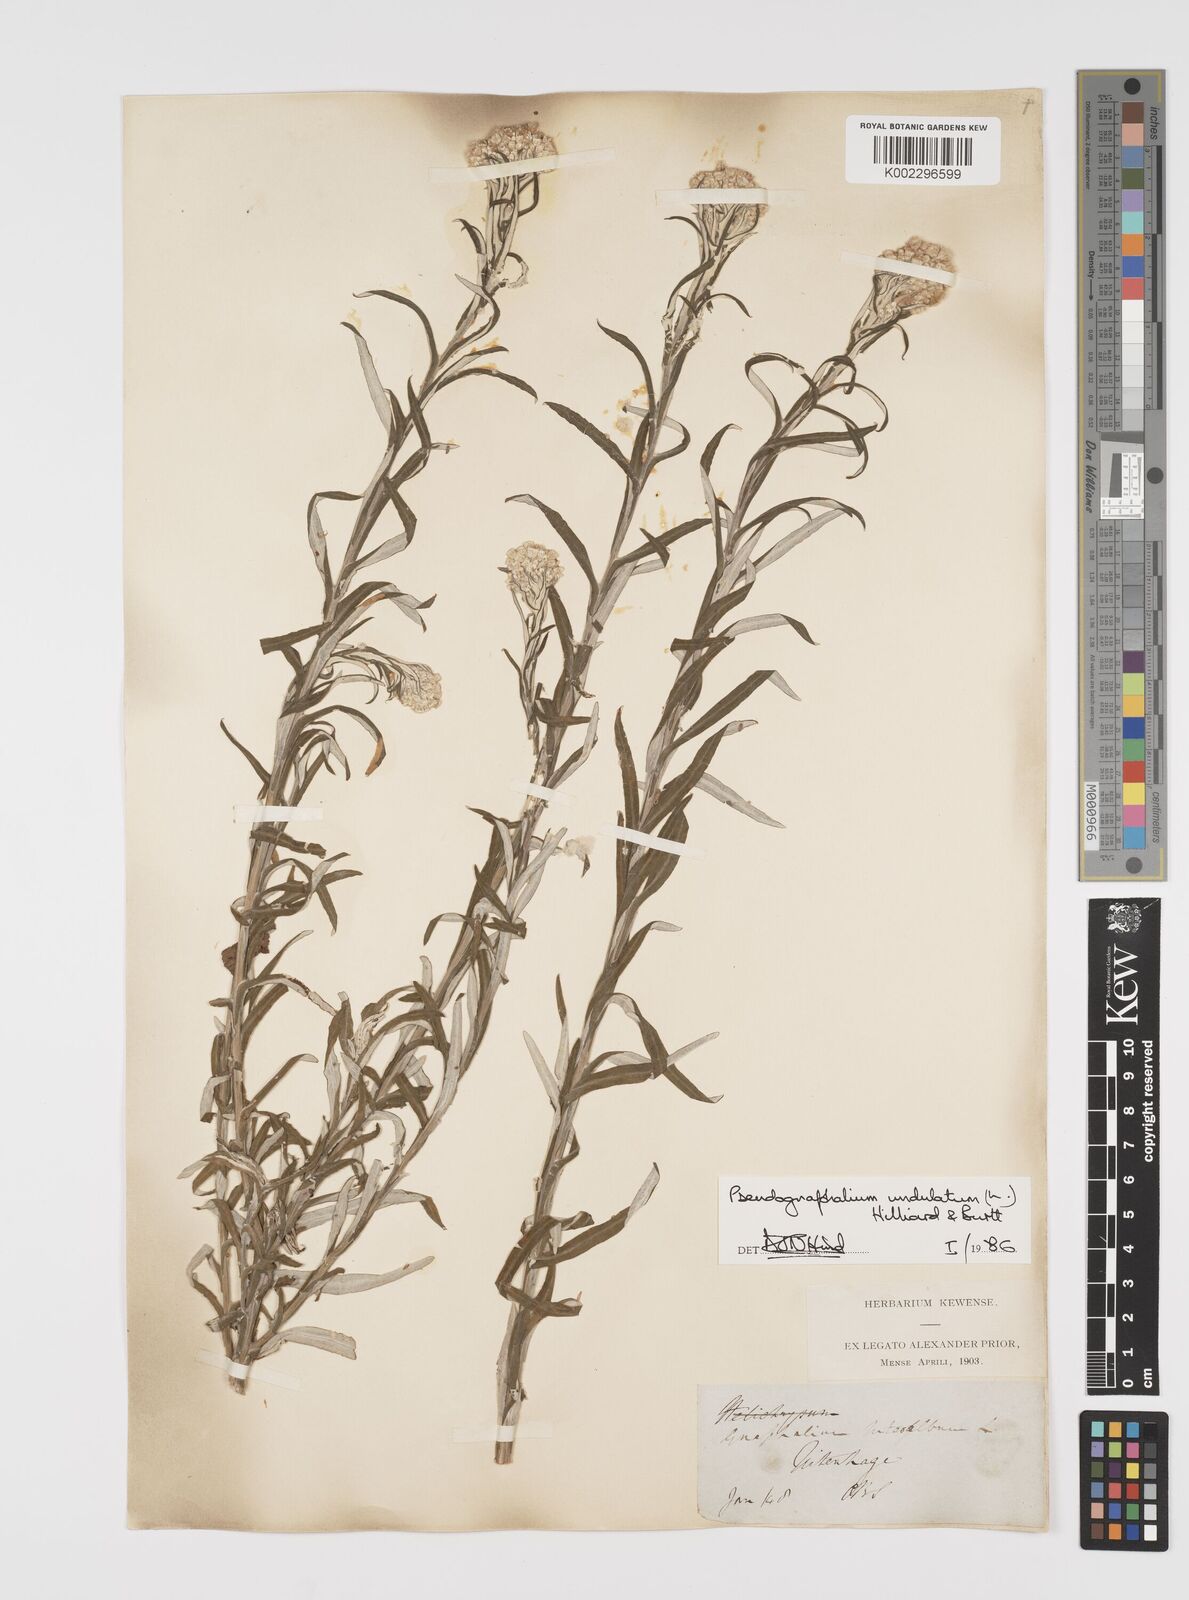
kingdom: Plantae
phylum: Tracheophyta
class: Magnoliopsida
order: Asterales
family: Asteraceae
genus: Pseudognaphalium
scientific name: Pseudognaphalium undulatum
